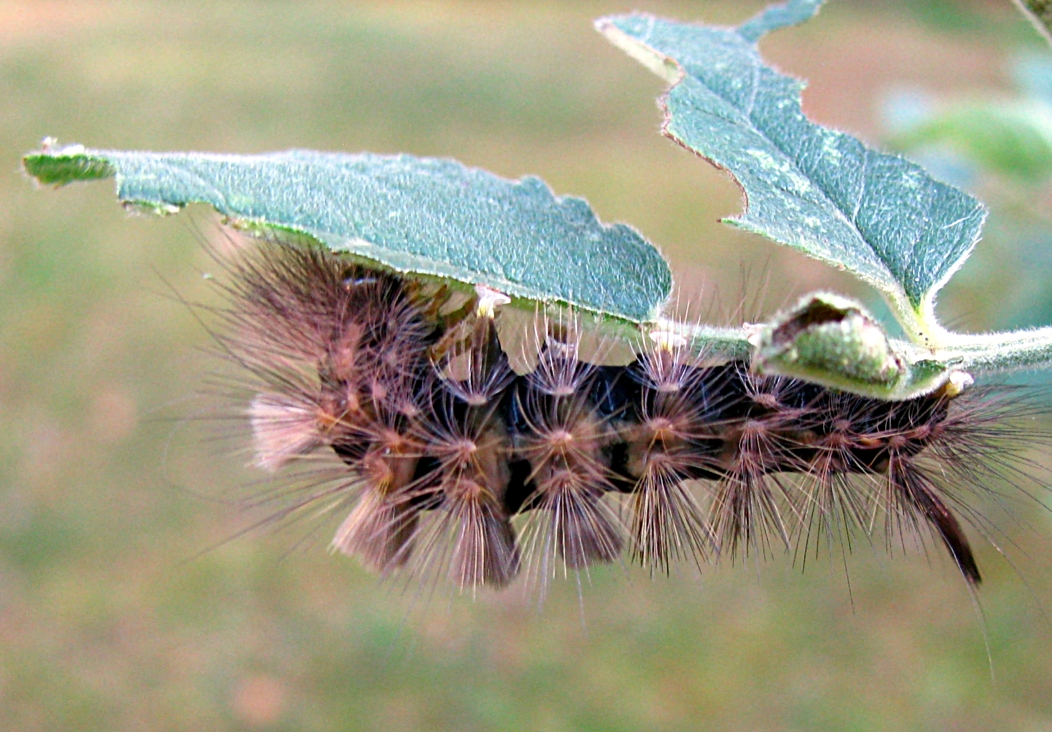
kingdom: Animalia
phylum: Arthropoda
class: Insecta
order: Lepidoptera
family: Erebidae
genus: Calliteara
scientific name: Calliteara pudibunda
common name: Pale tussock
